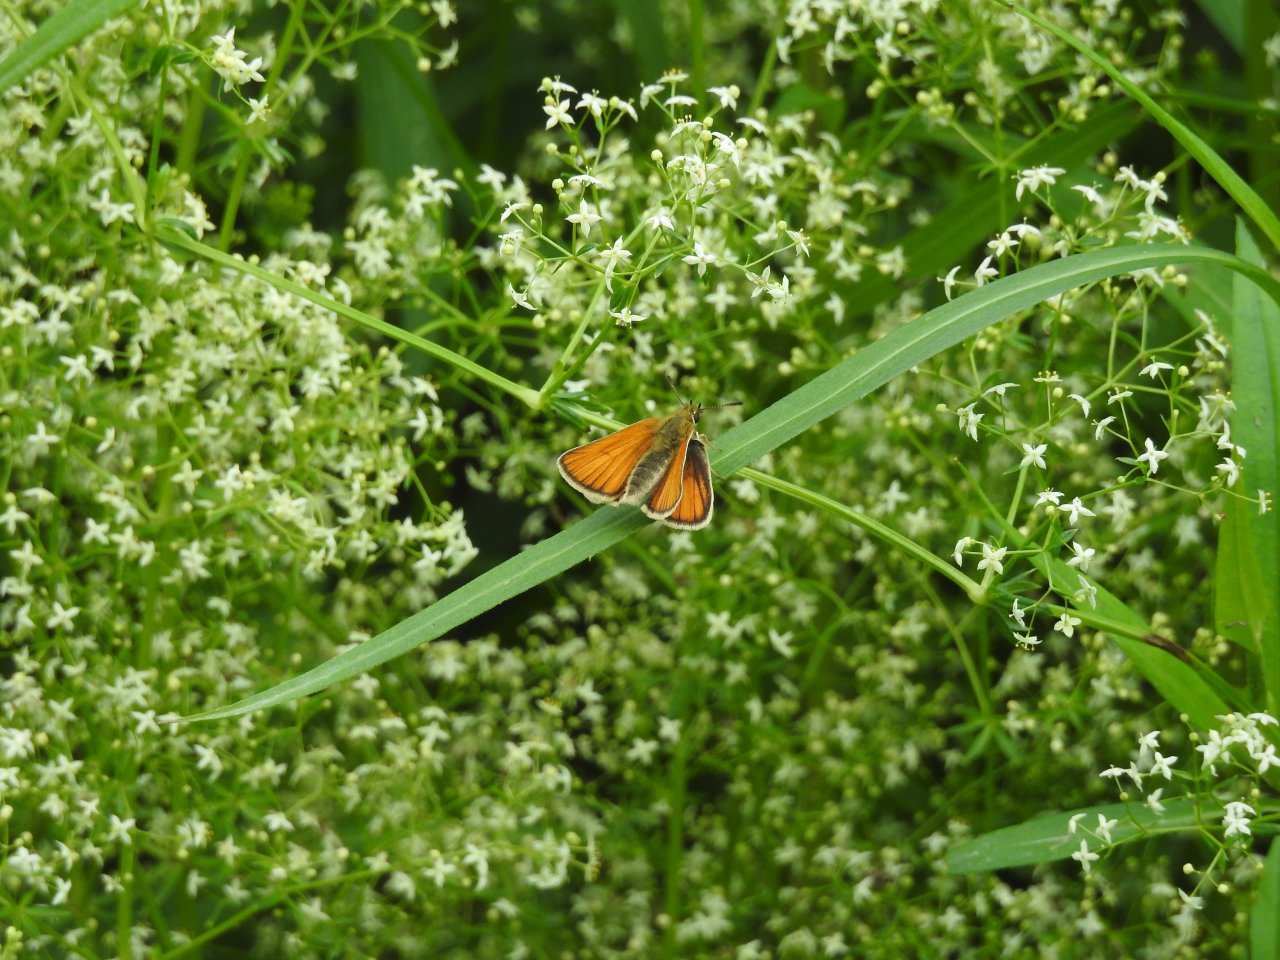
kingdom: Animalia
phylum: Arthropoda
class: Insecta
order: Lepidoptera
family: Hesperiidae
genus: Thymelicus
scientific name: Thymelicus lineola
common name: European Skipper
